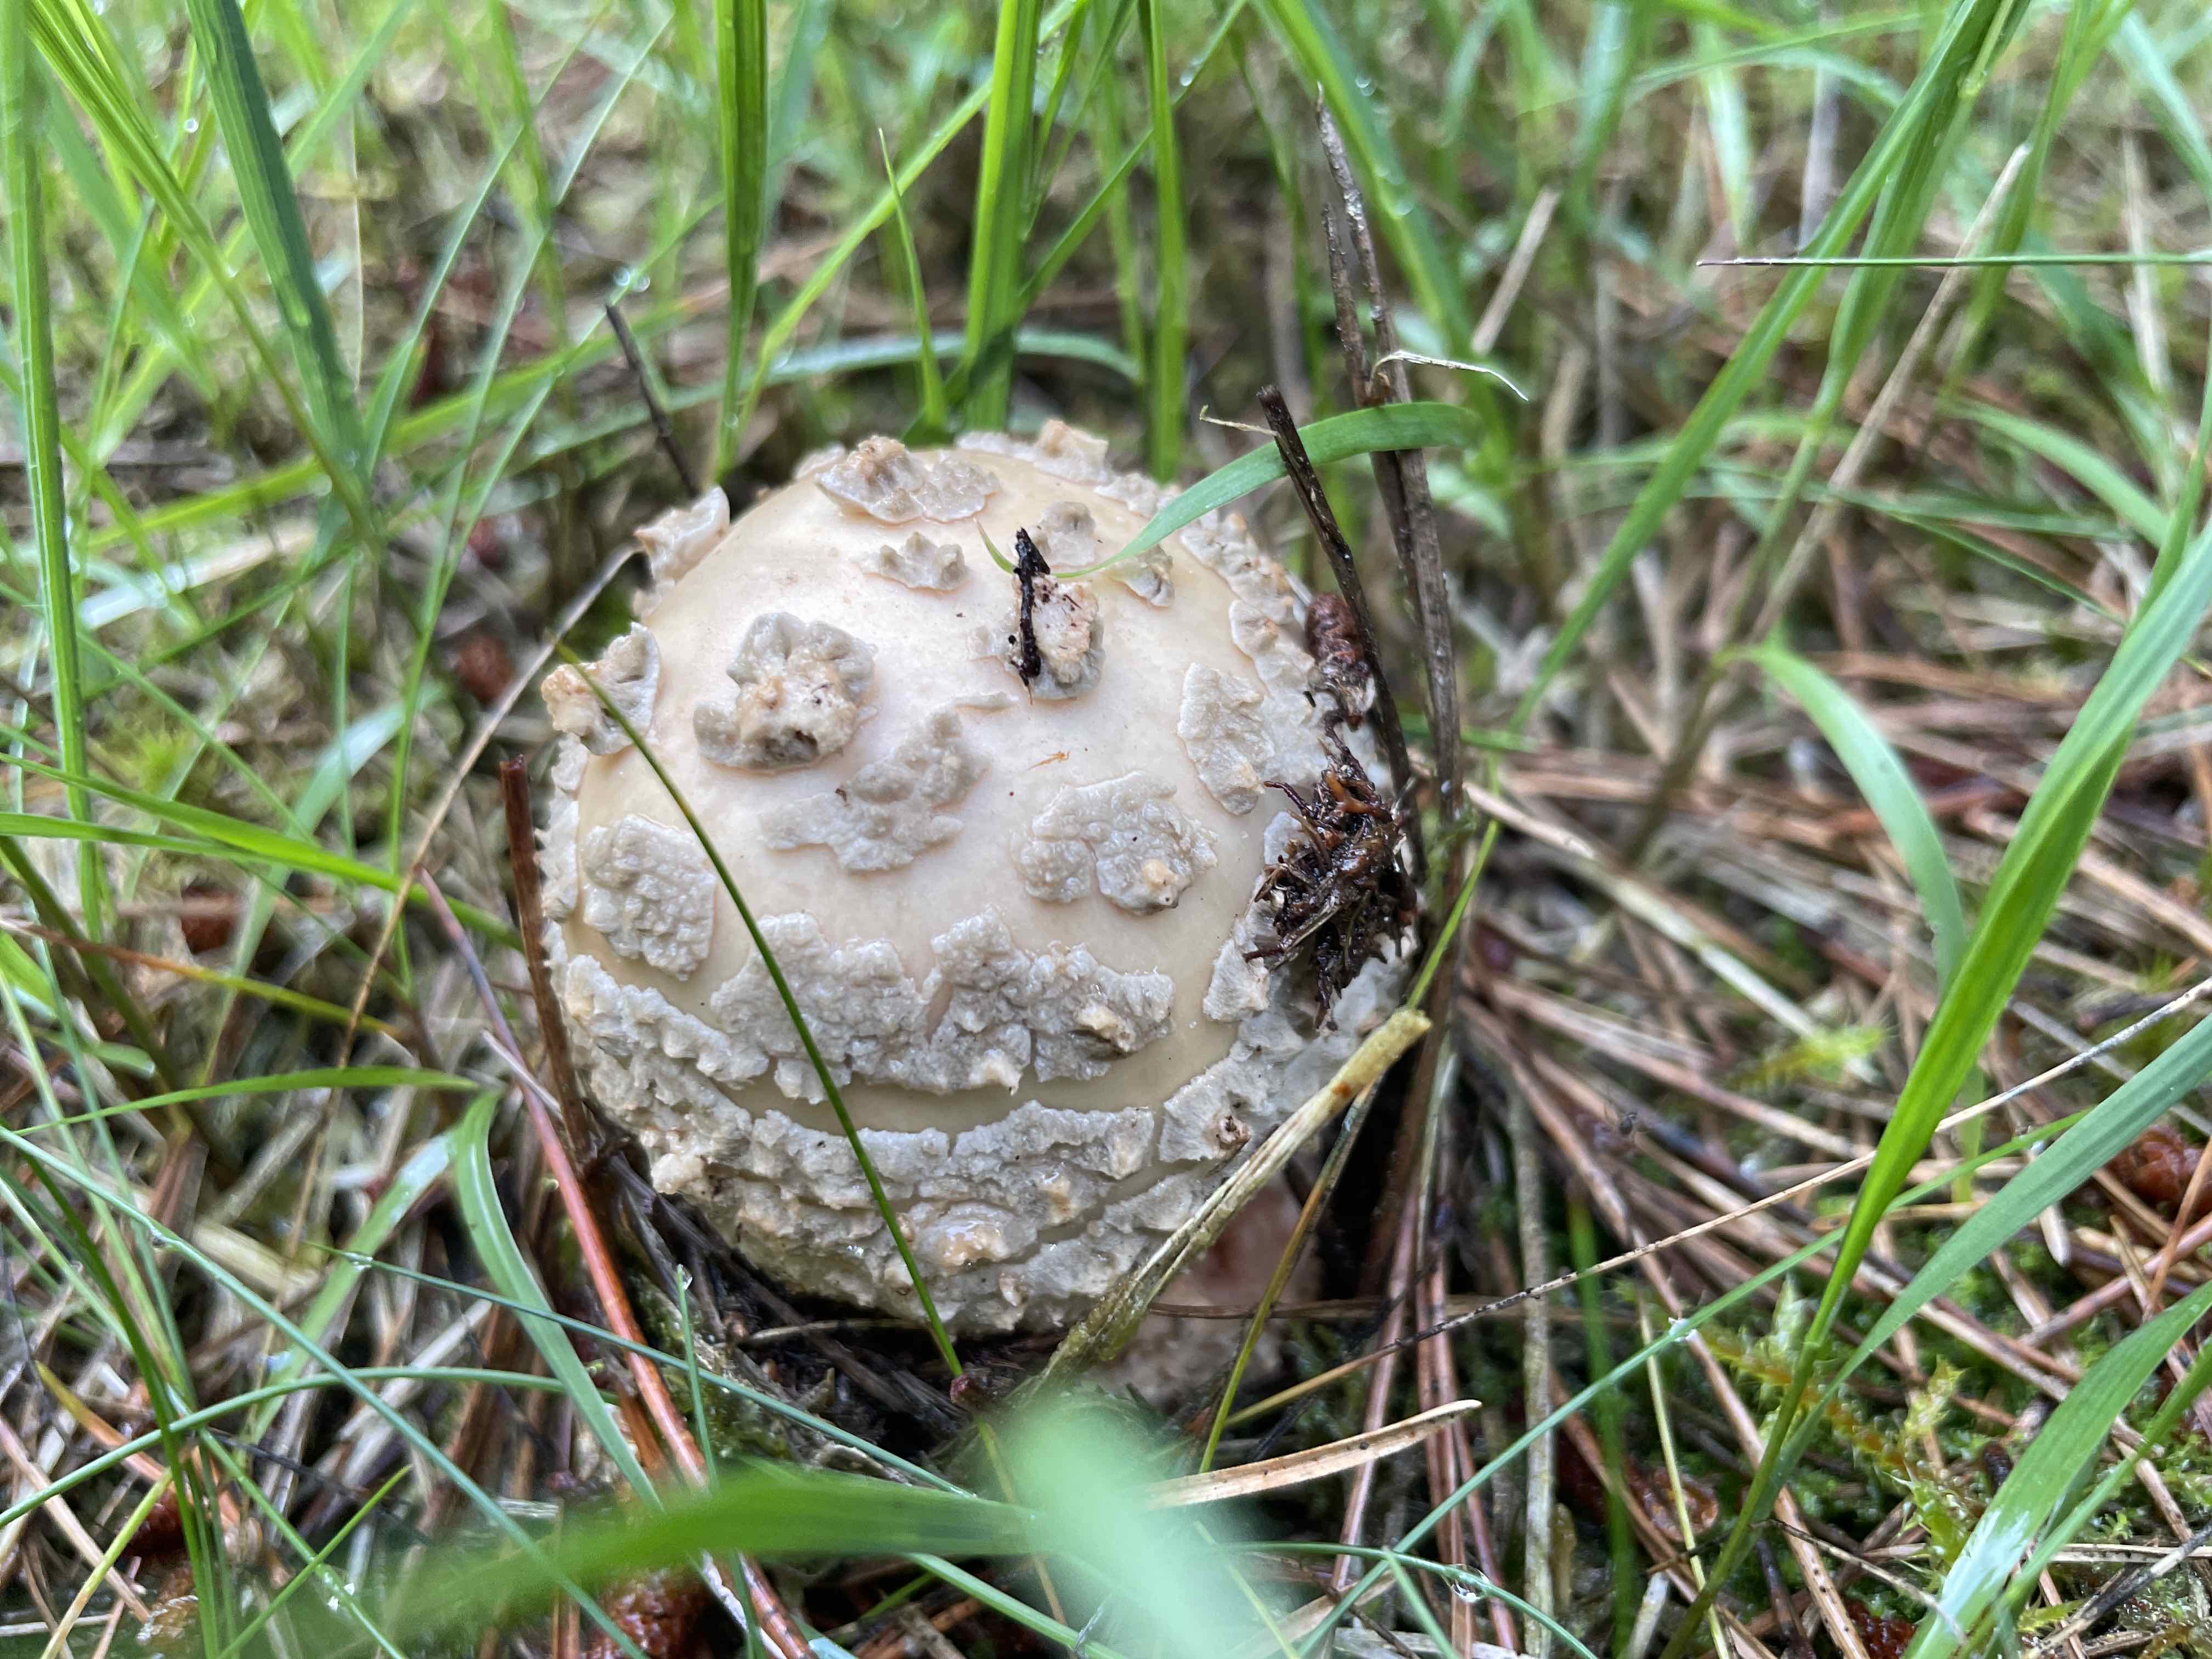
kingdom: Fungi
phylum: Basidiomycota
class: Agaricomycetes
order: Agaricales
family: Amanitaceae
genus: Amanita
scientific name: Amanita
